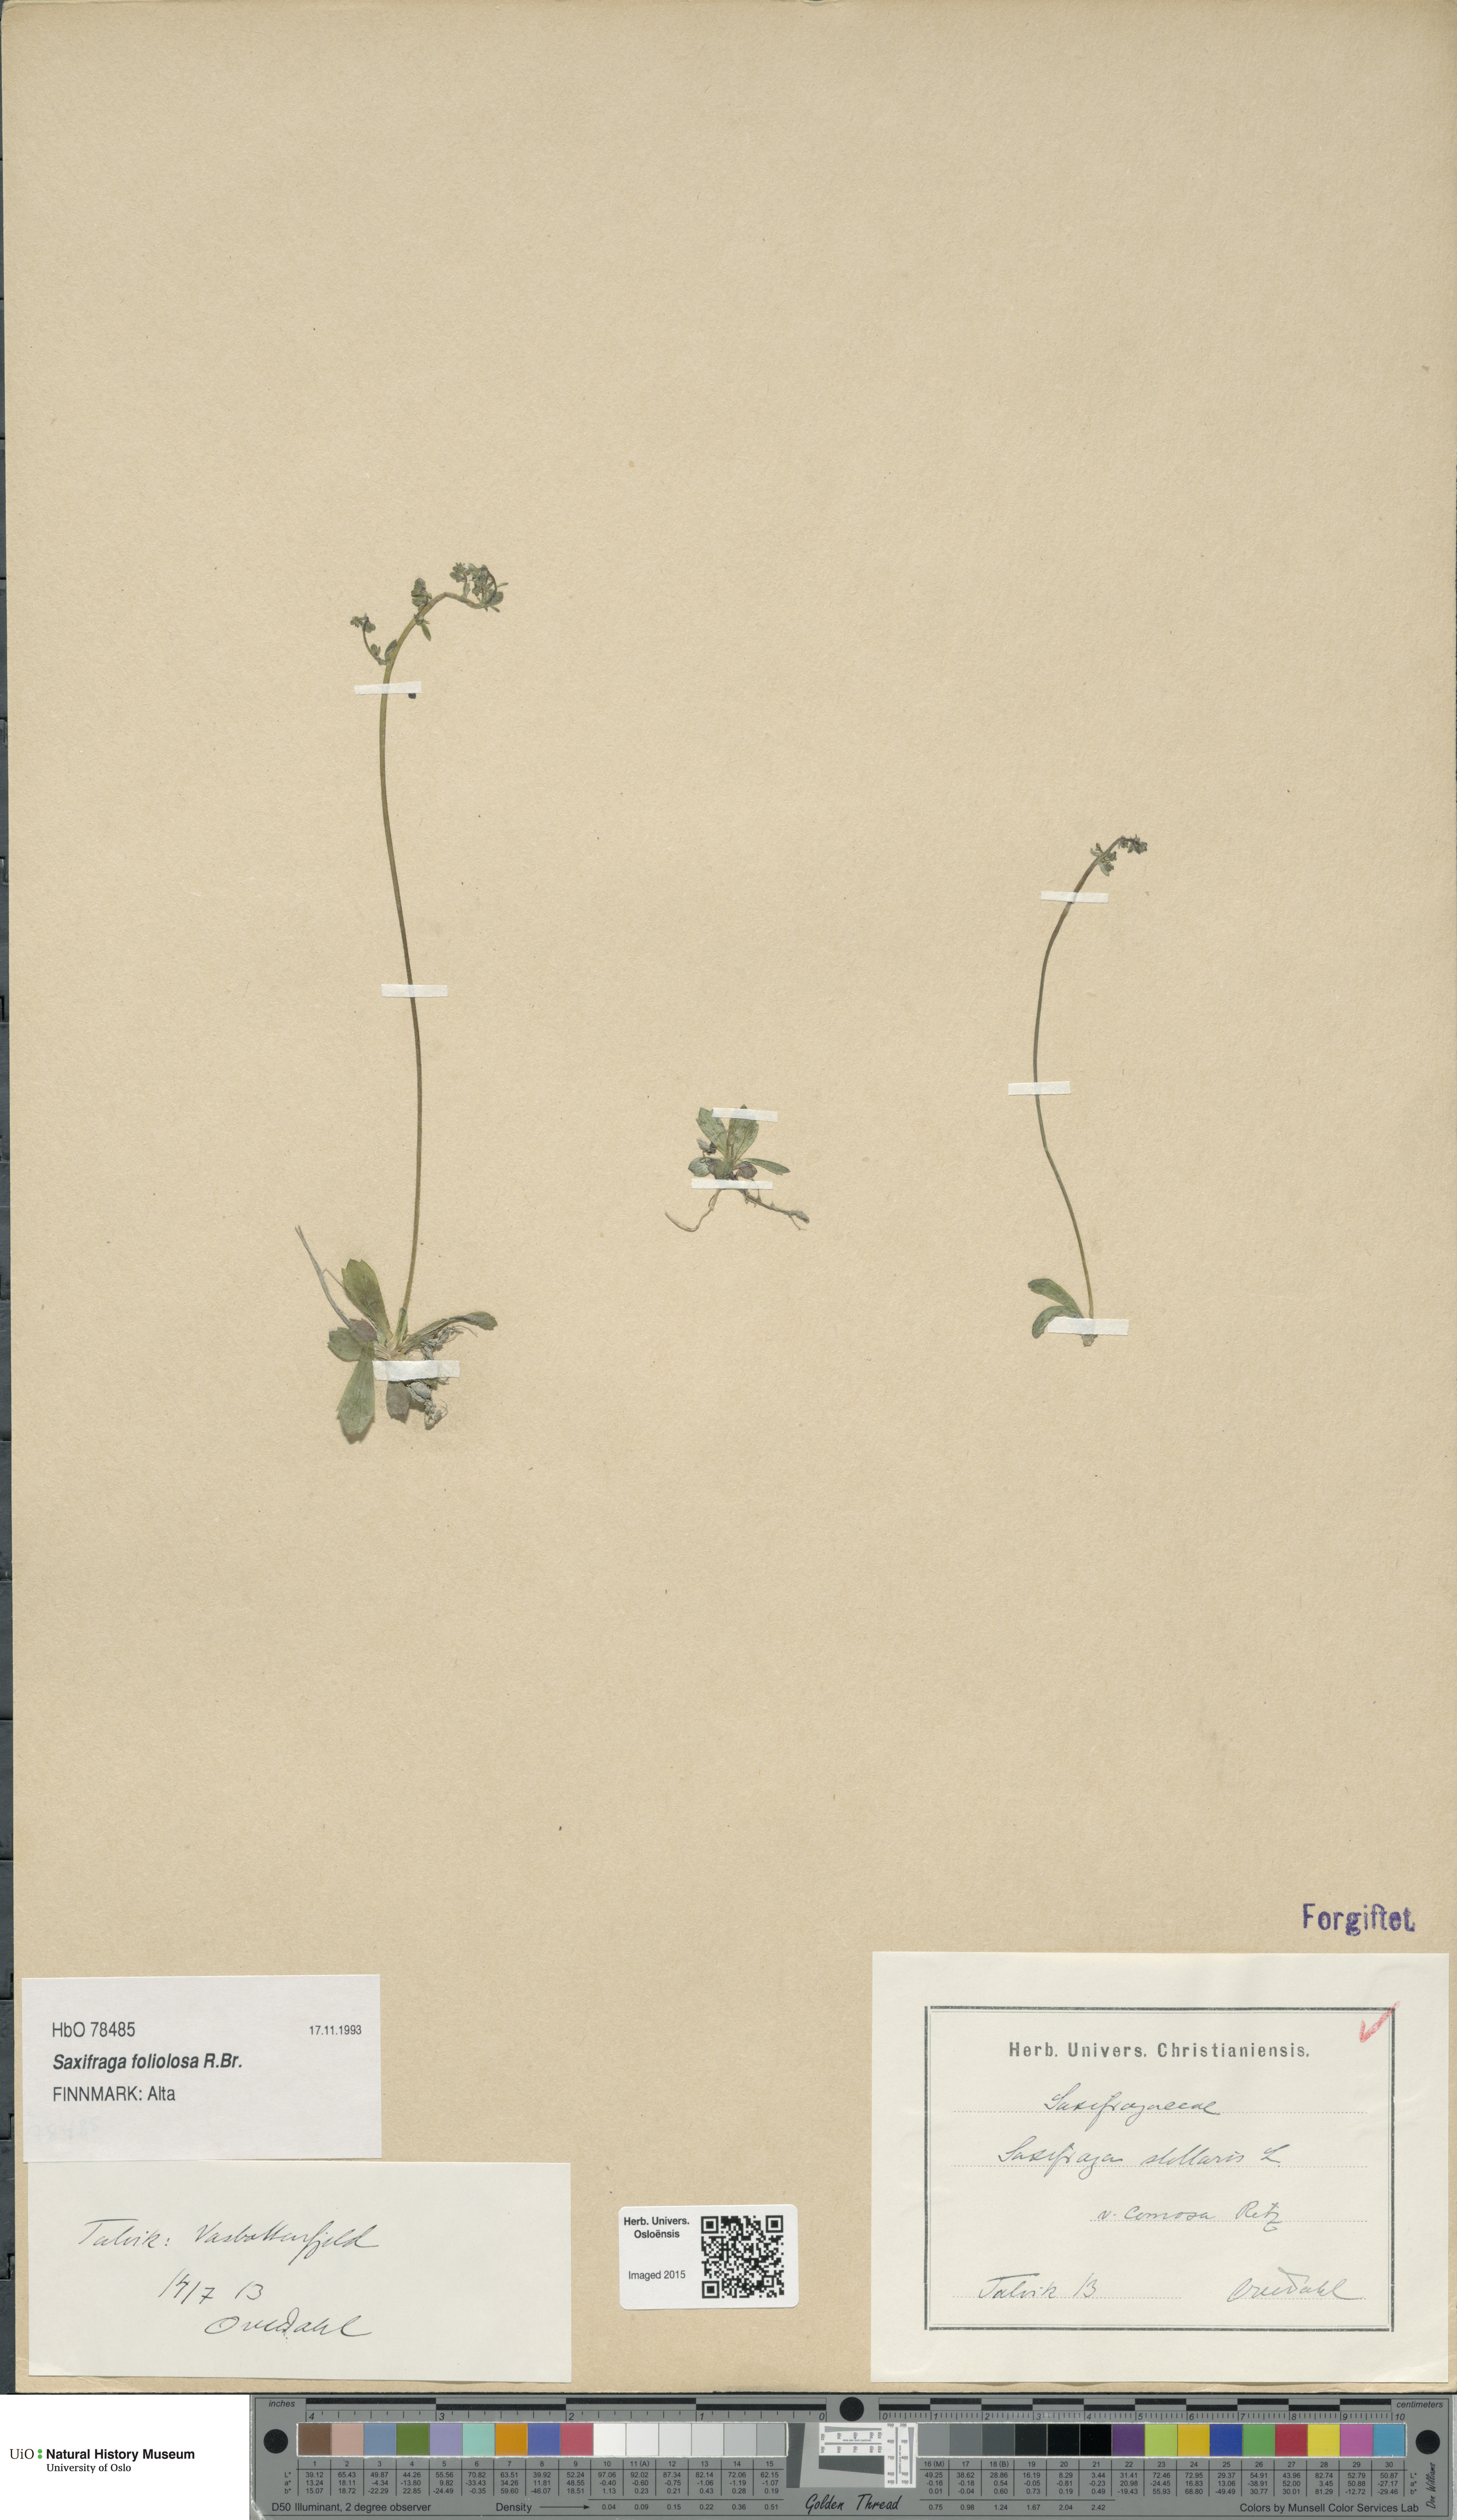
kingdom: Plantae
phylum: Tracheophyta
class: Magnoliopsida
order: Saxifragales
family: Saxifragaceae
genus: Micranthes
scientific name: Micranthes foliolosa
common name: Leafystem saxifrage
